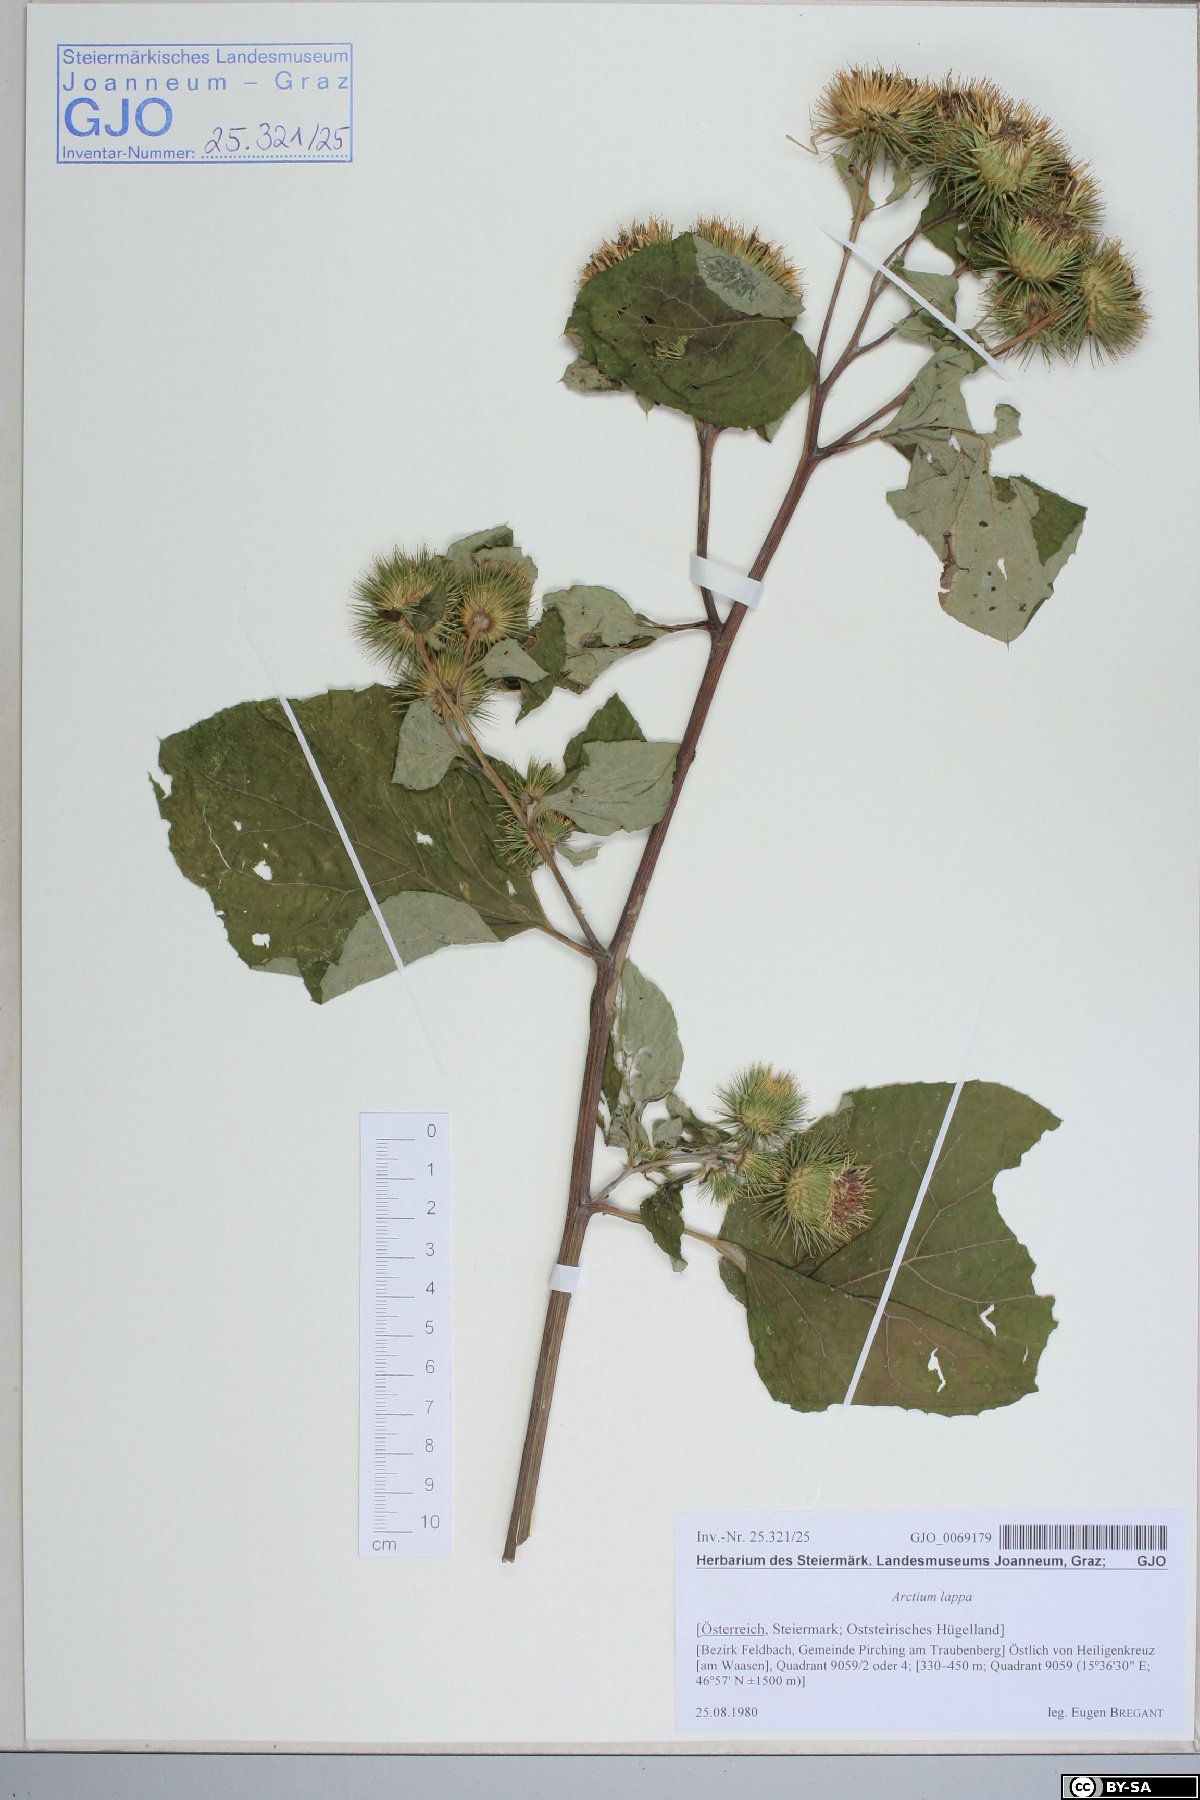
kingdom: Plantae
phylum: Tracheophyta
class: Magnoliopsida
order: Asterales
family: Asteraceae
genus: Arctium
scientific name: Arctium lappa
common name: Greater burdock
